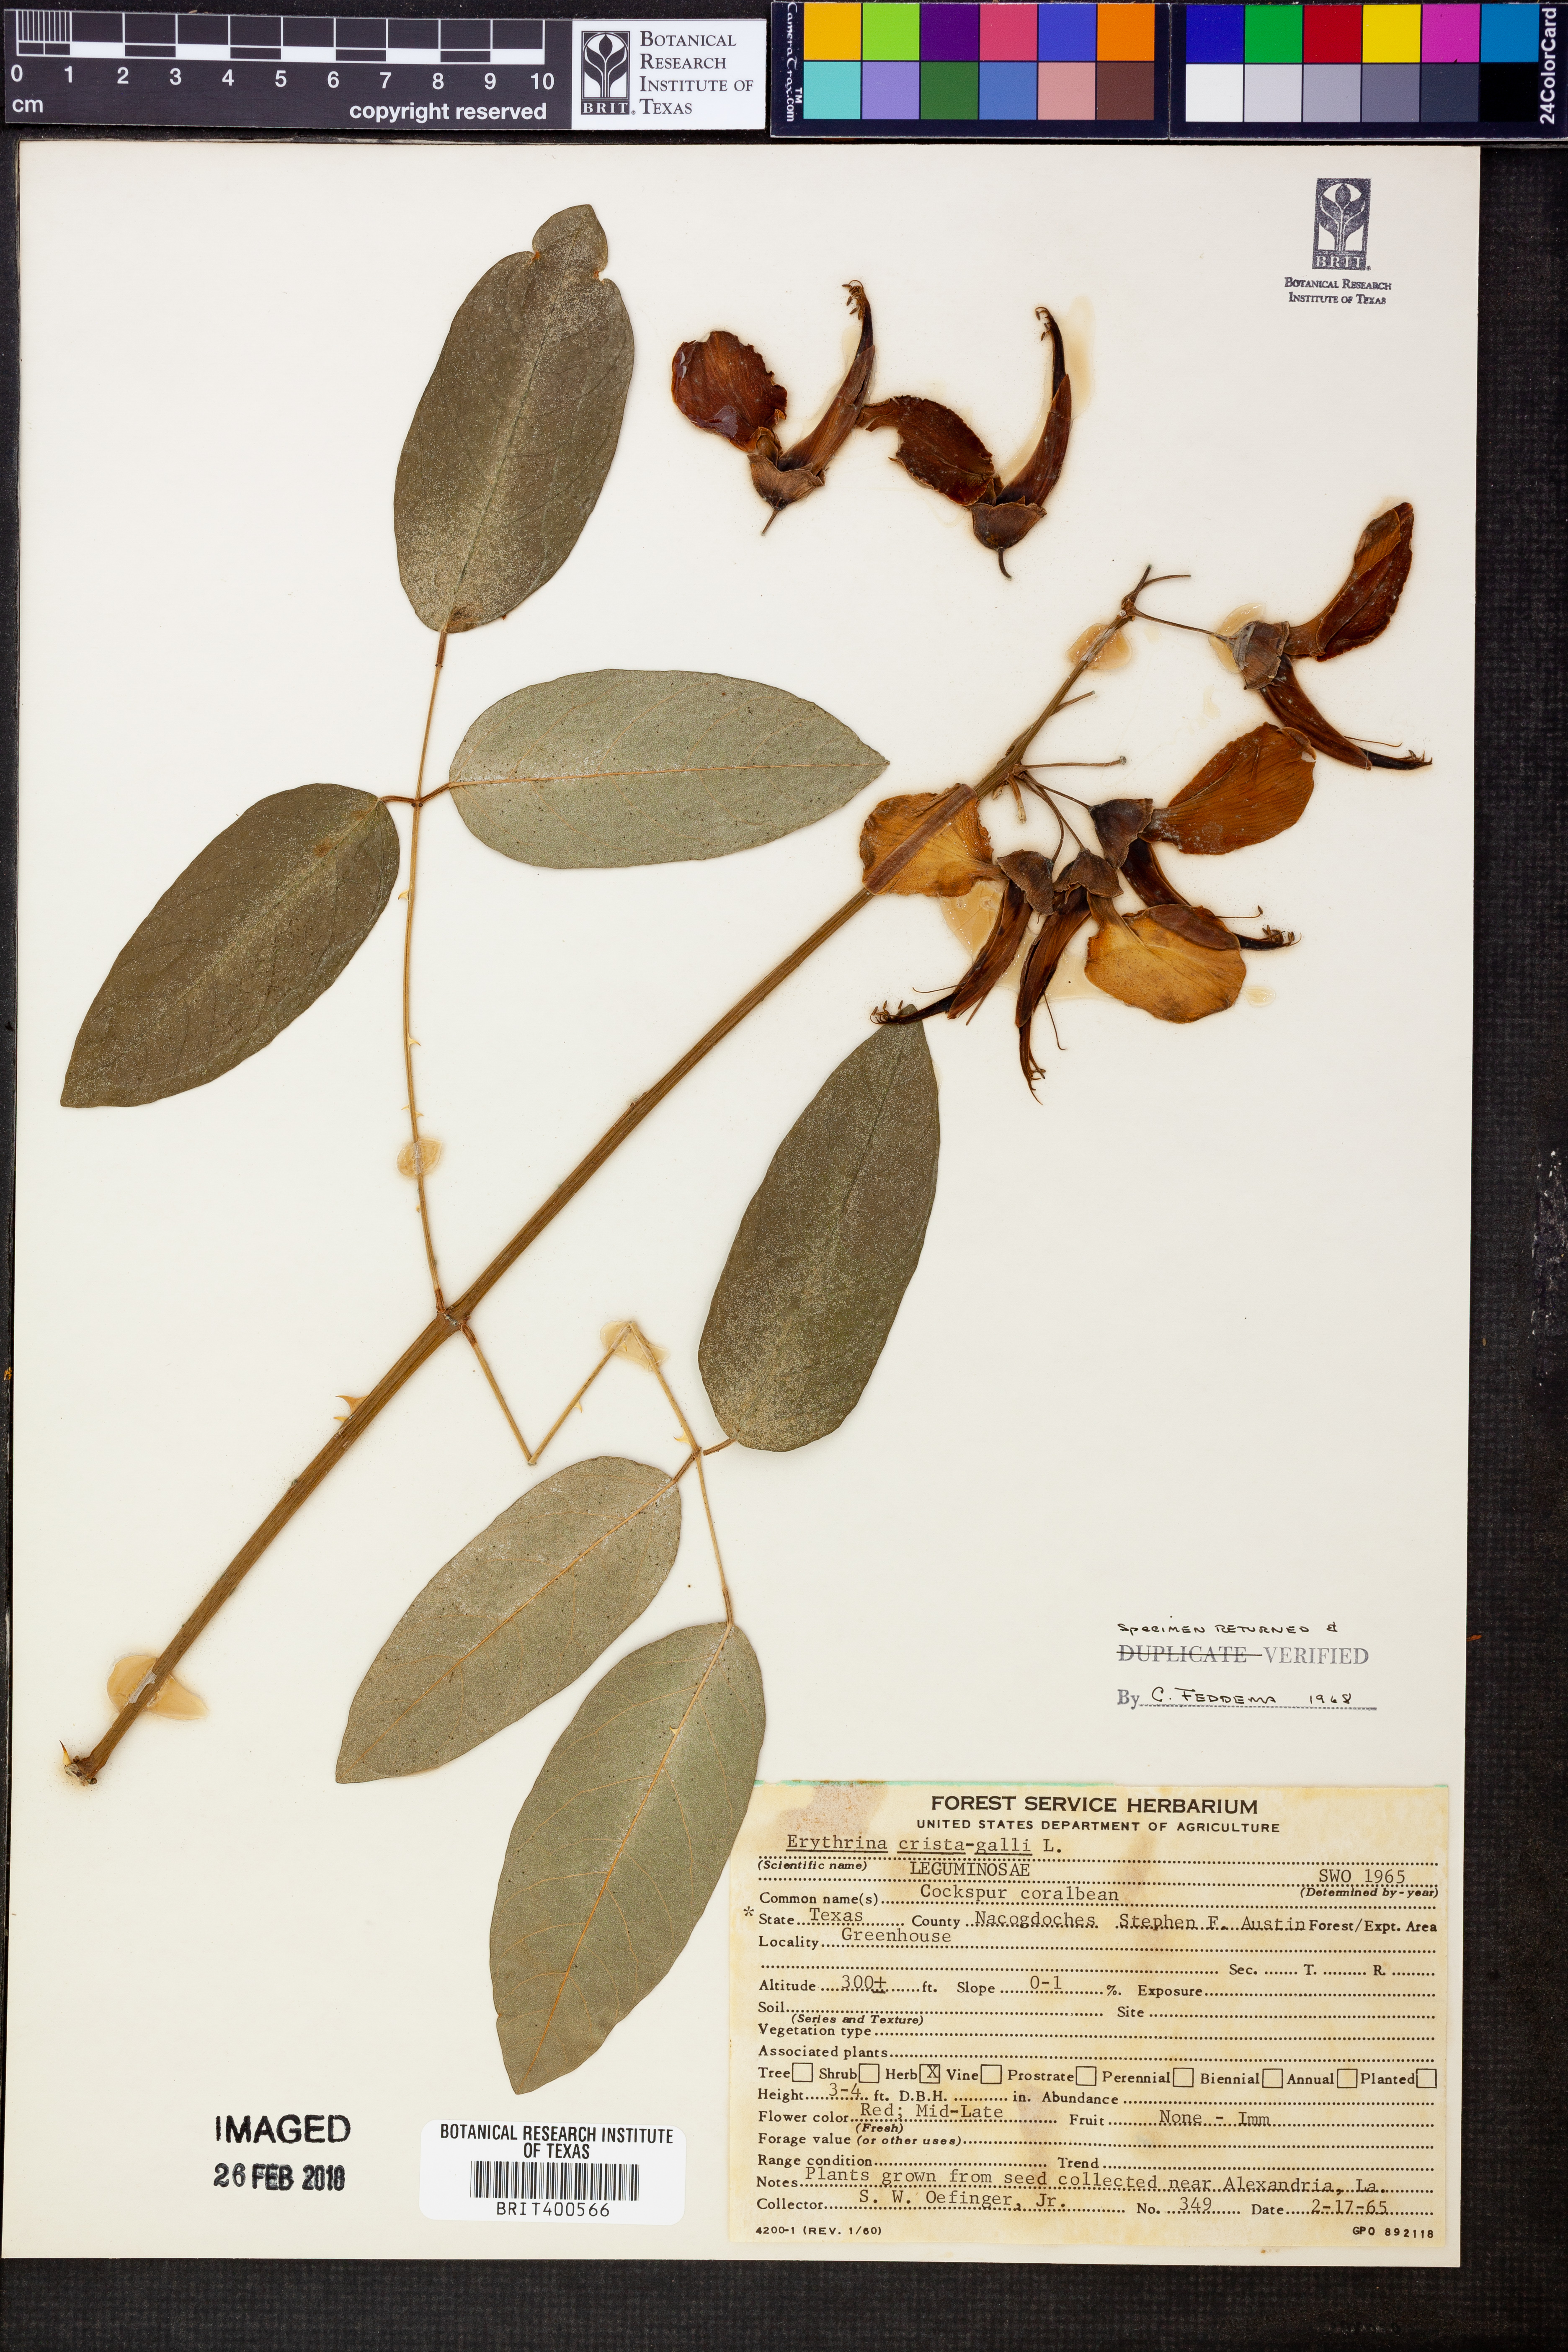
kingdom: Plantae
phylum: Tracheophyta
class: Magnoliopsida
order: Fabales
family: Fabaceae
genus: Erythrina
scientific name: Erythrina crista-galli
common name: Cockspur coral tree
